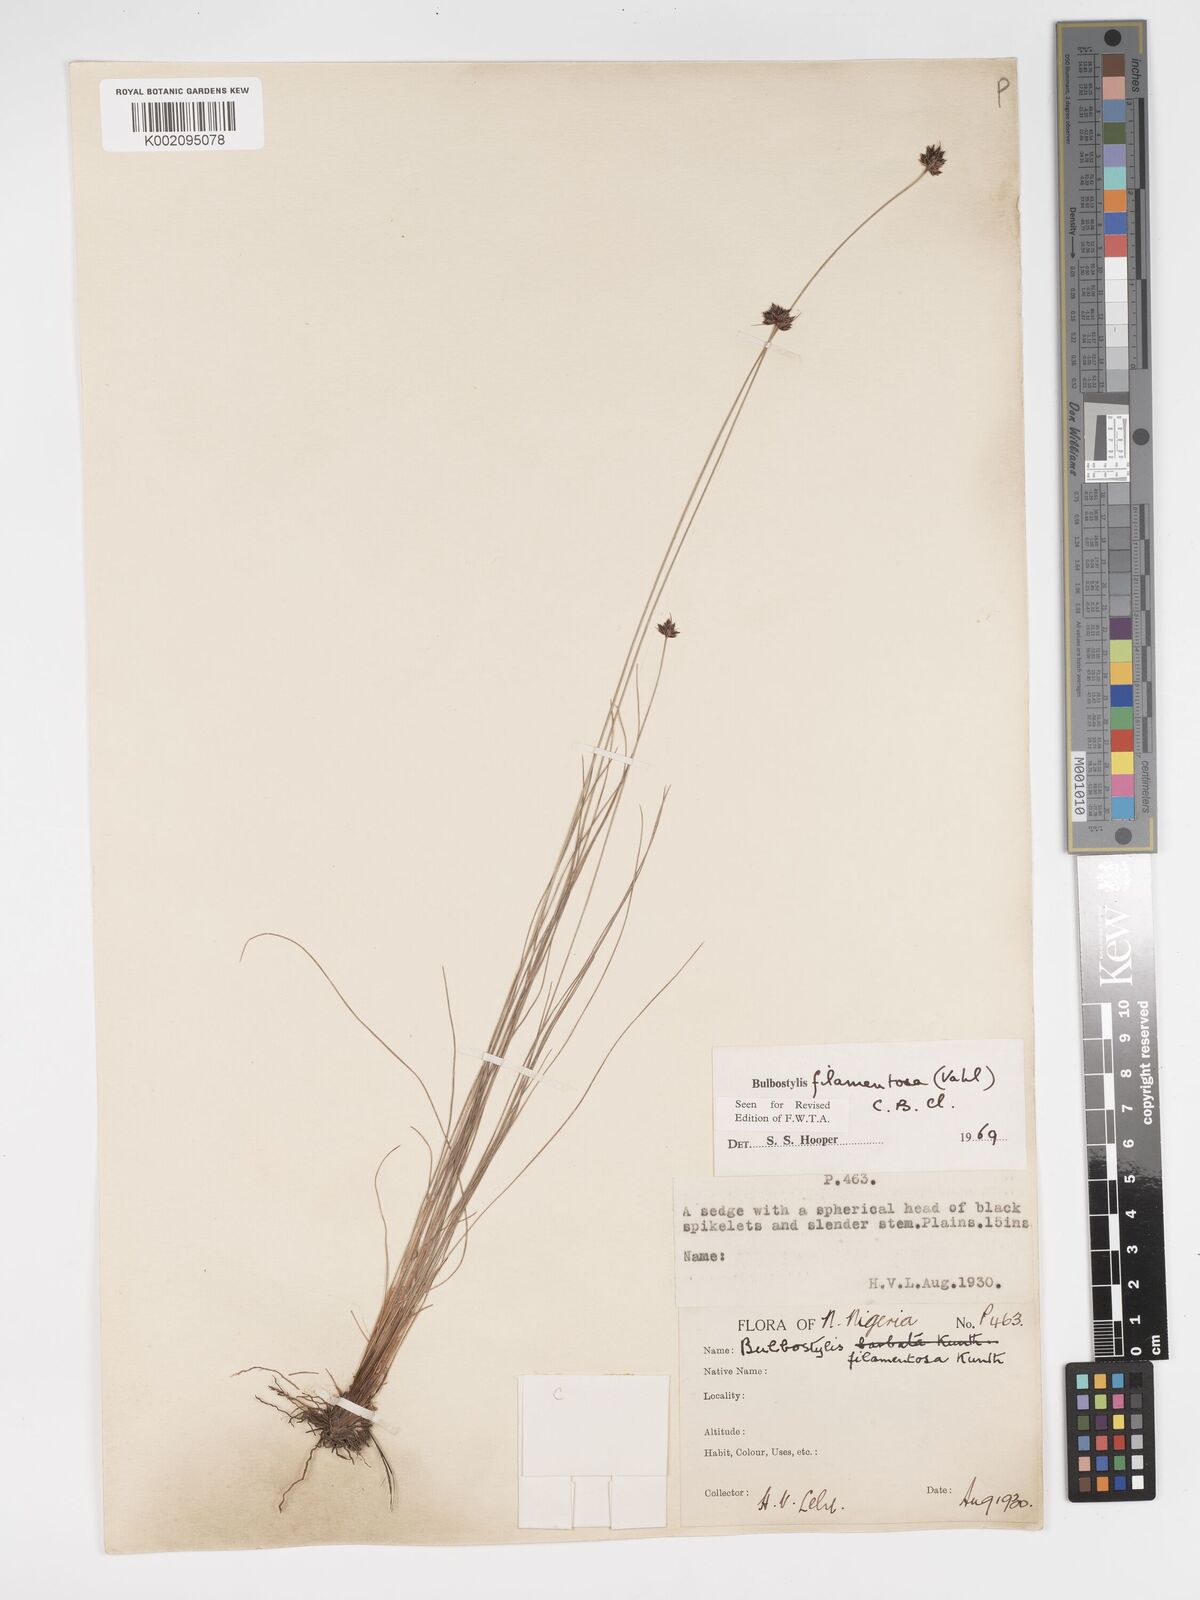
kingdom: Plantae
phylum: Tracheophyta
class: Liliopsida
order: Poales
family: Cyperaceae
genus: Bulbostylis
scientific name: Bulbostylis scabricaulis
